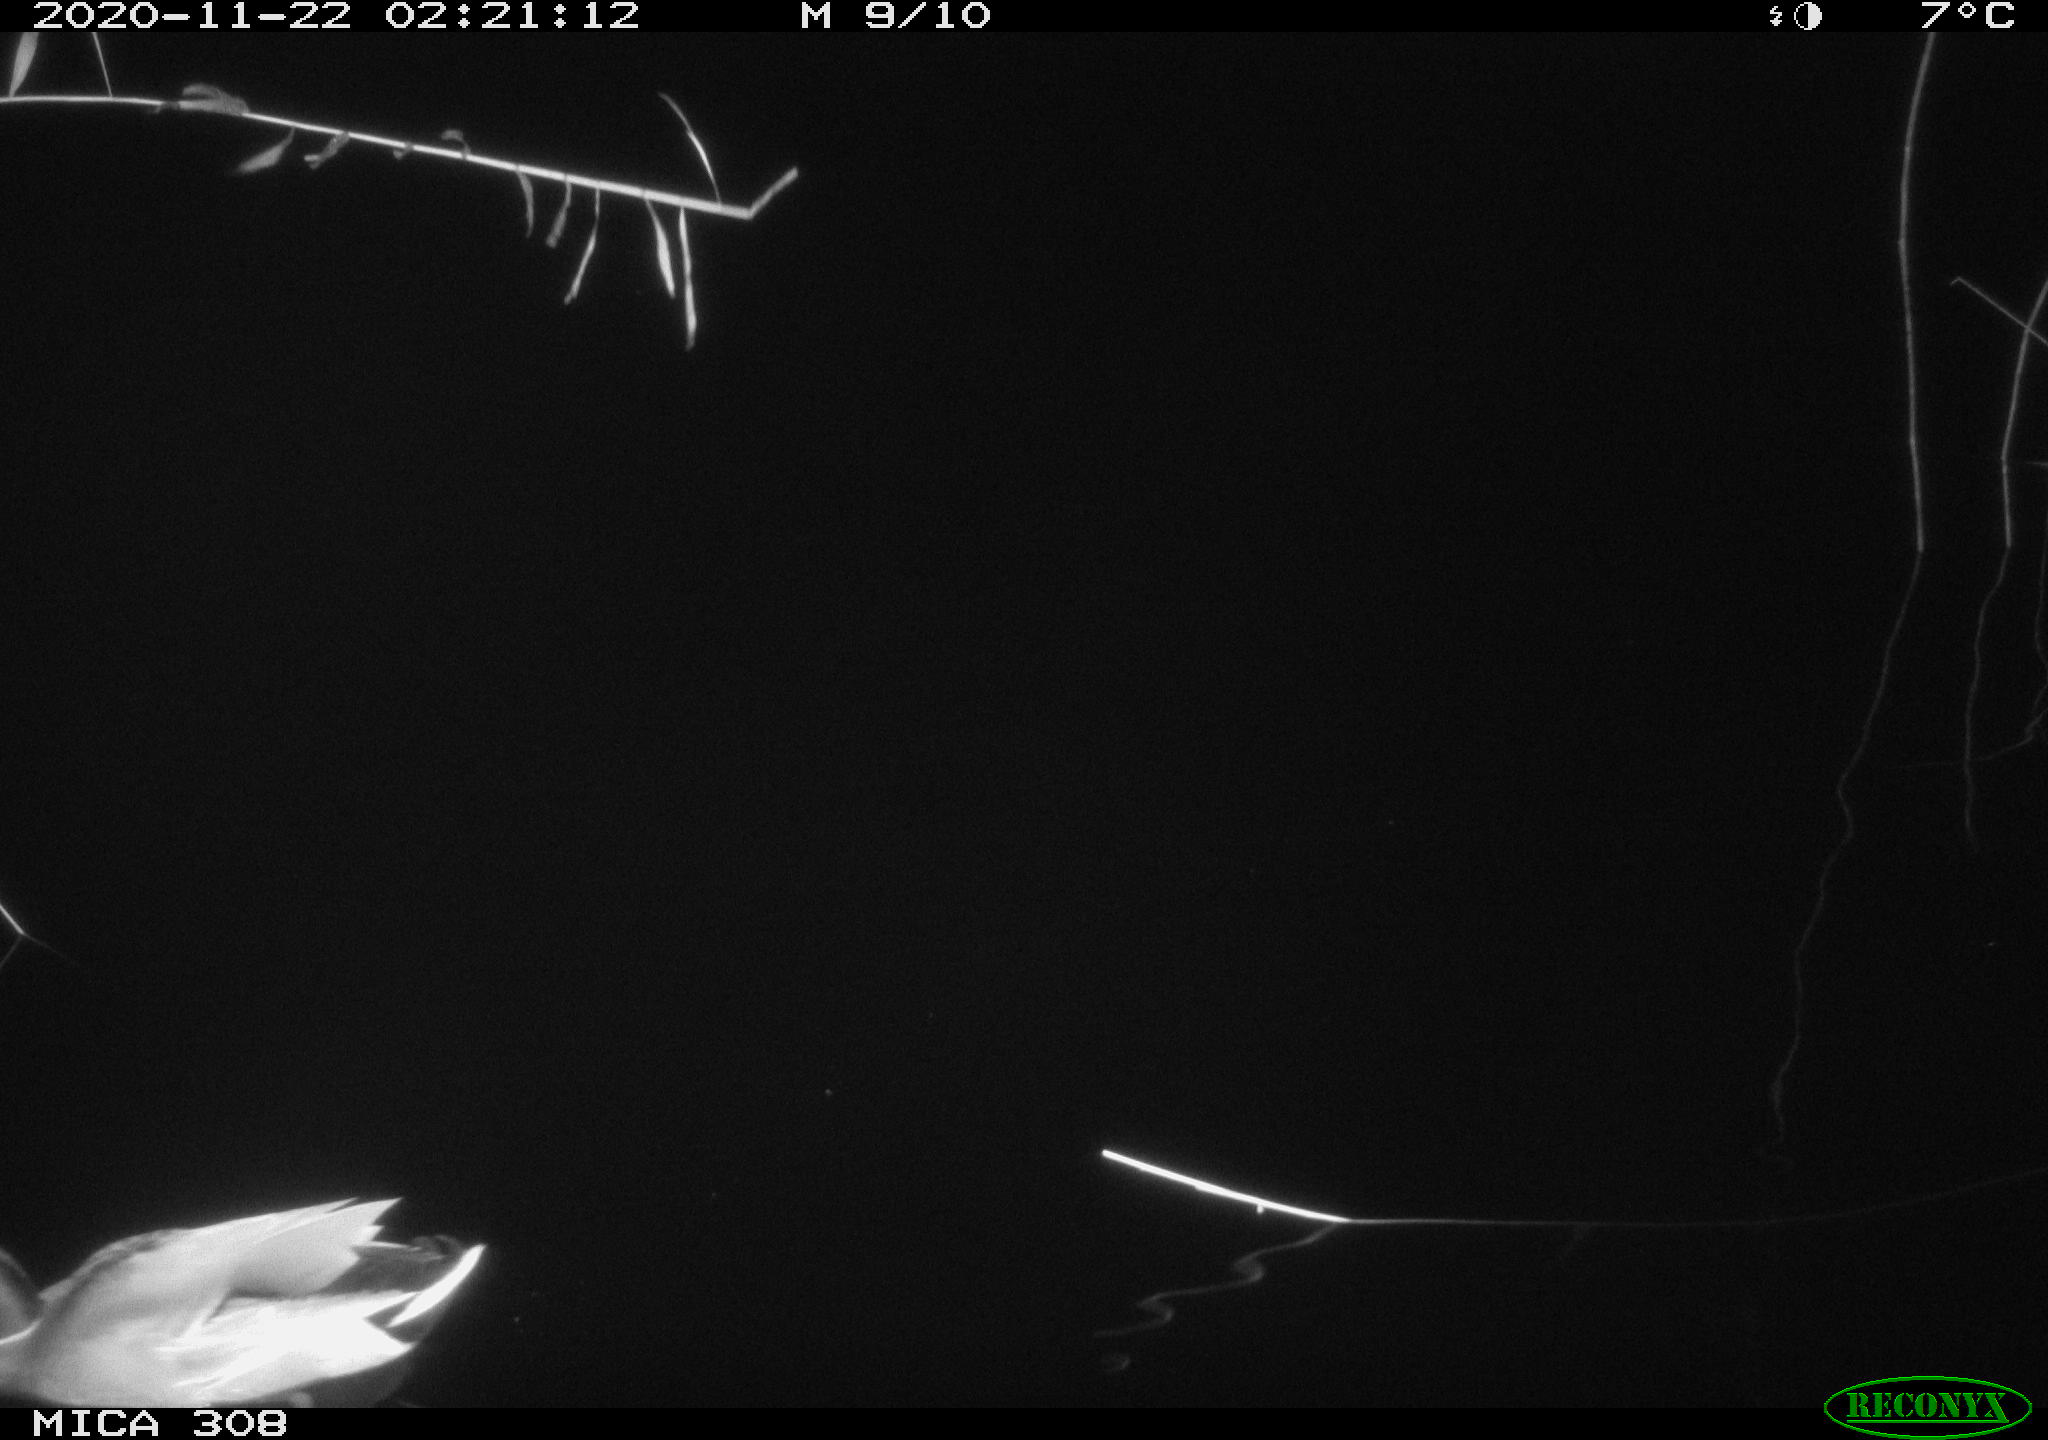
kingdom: Animalia
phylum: Chordata
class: Aves
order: Anseriformes
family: Anatidae
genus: Anas
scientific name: Anas platyrhynchos
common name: Mallard
